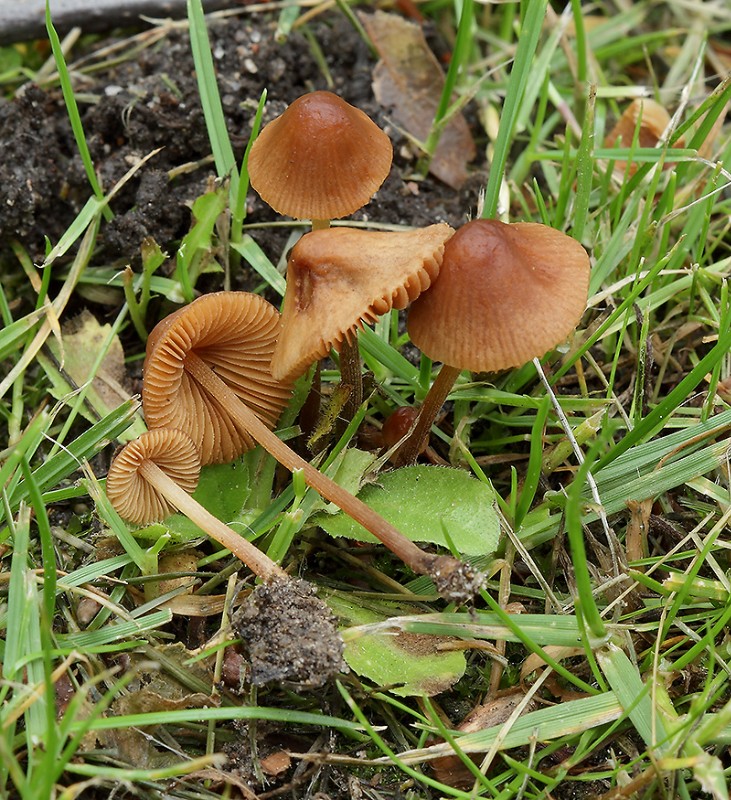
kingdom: Fungi
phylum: Basidiomycota
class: Agaricomycetes
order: Agaricales
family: Bolbitiaceae
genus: Conocybe
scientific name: Conocybe juniana
